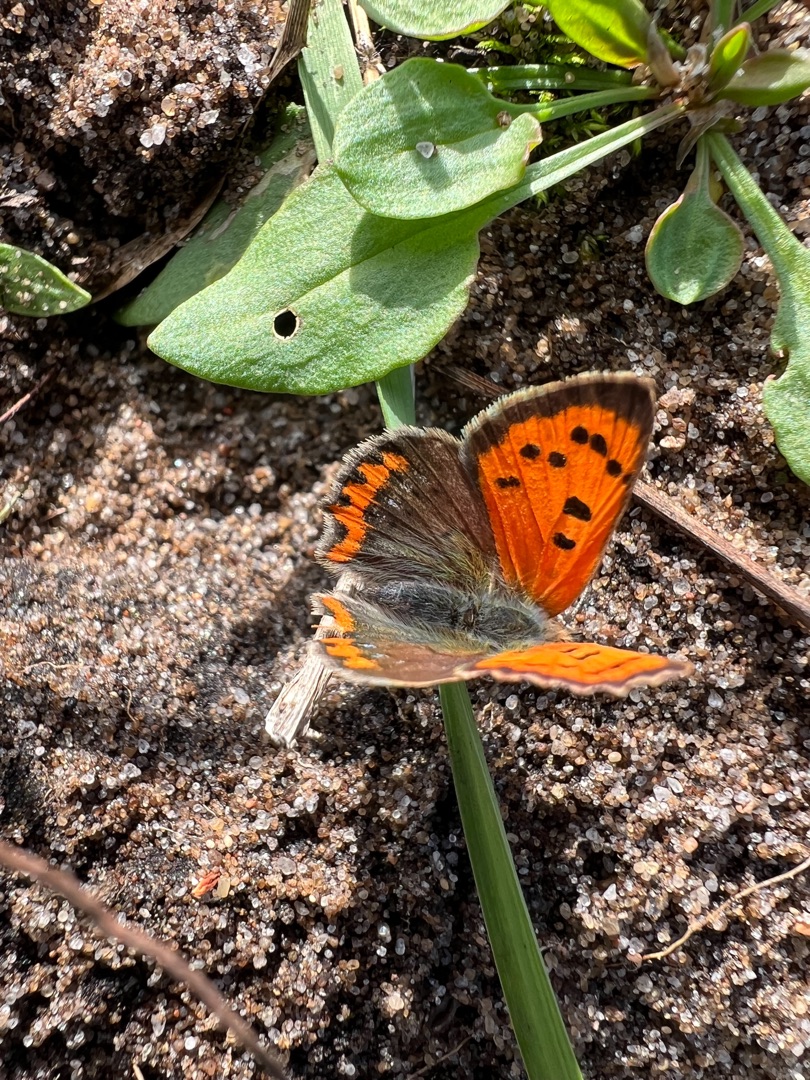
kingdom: Animalia
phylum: Arthropoda
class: Insecta
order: Lepidoptera
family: Lycaenidae
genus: Lycaena
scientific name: Lycaena phlaeas
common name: Lille ildfugl
